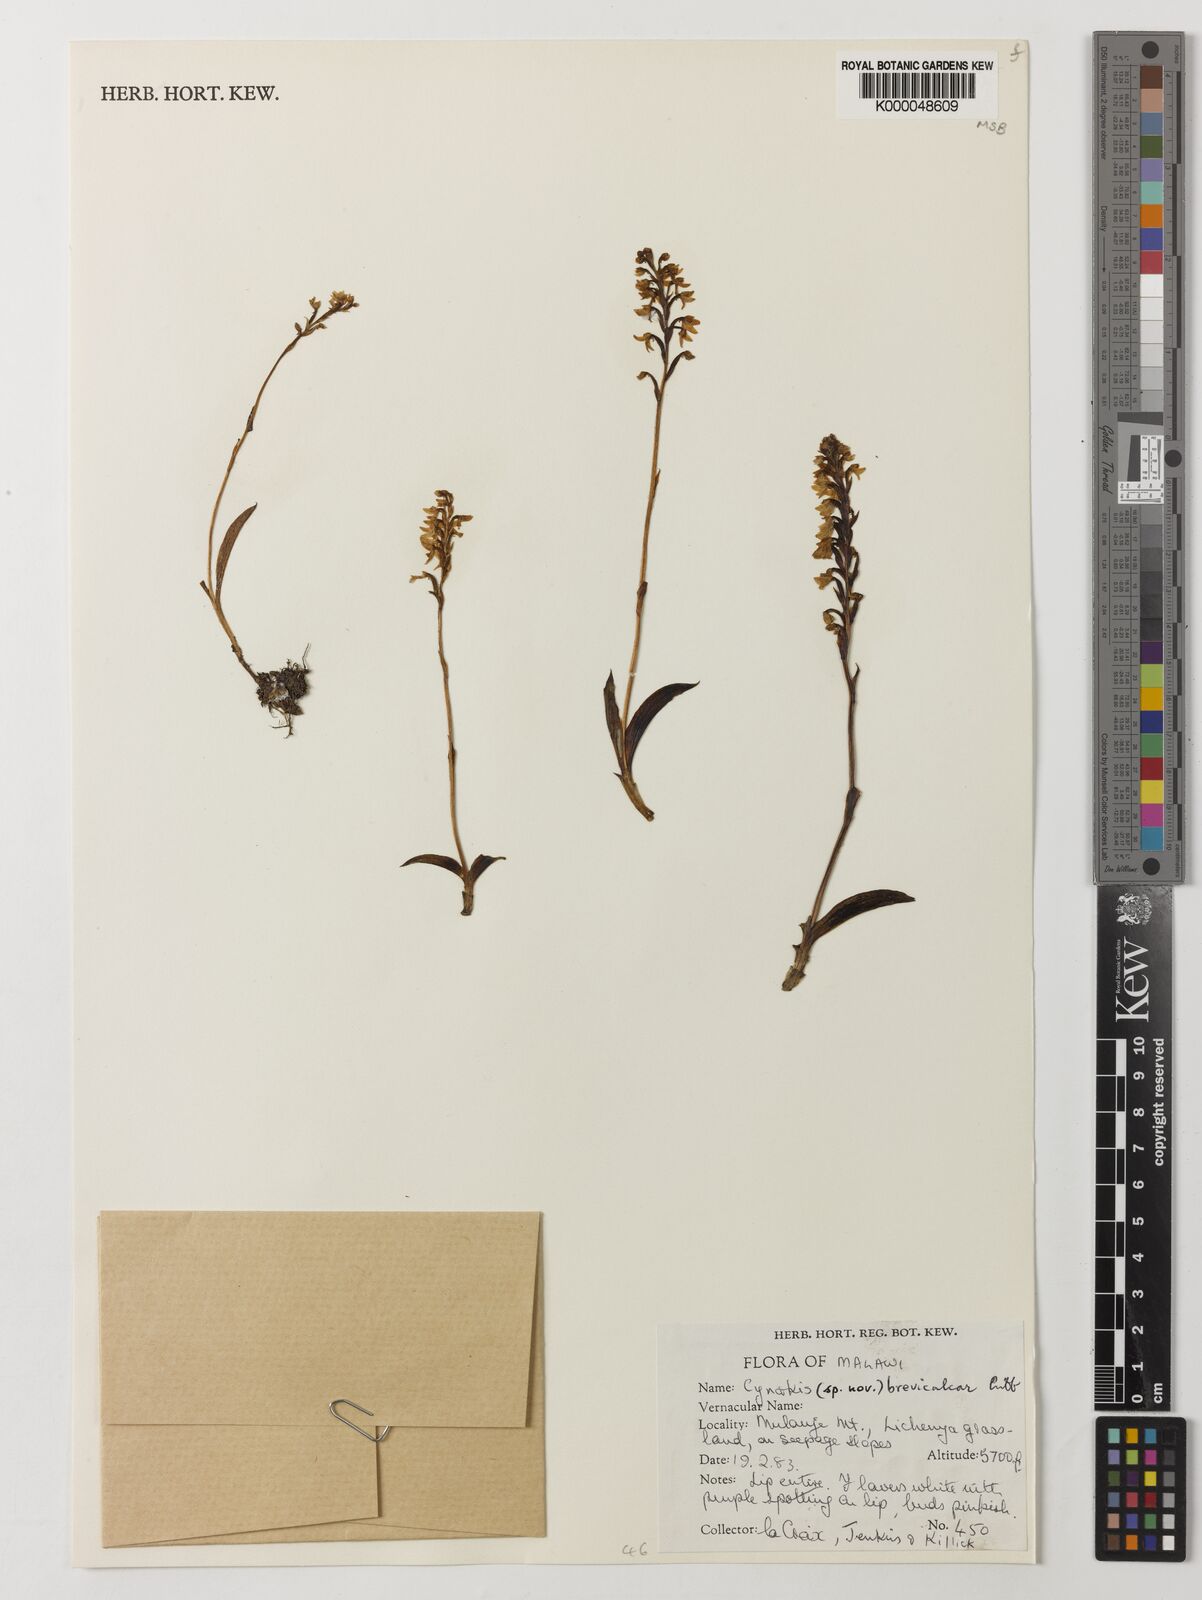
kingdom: Plantae
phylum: Tracheophyta
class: Liliopsida
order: Asparagales
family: Orchidaceae
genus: Cynorkis
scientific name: Cynorkis brevicalcar
